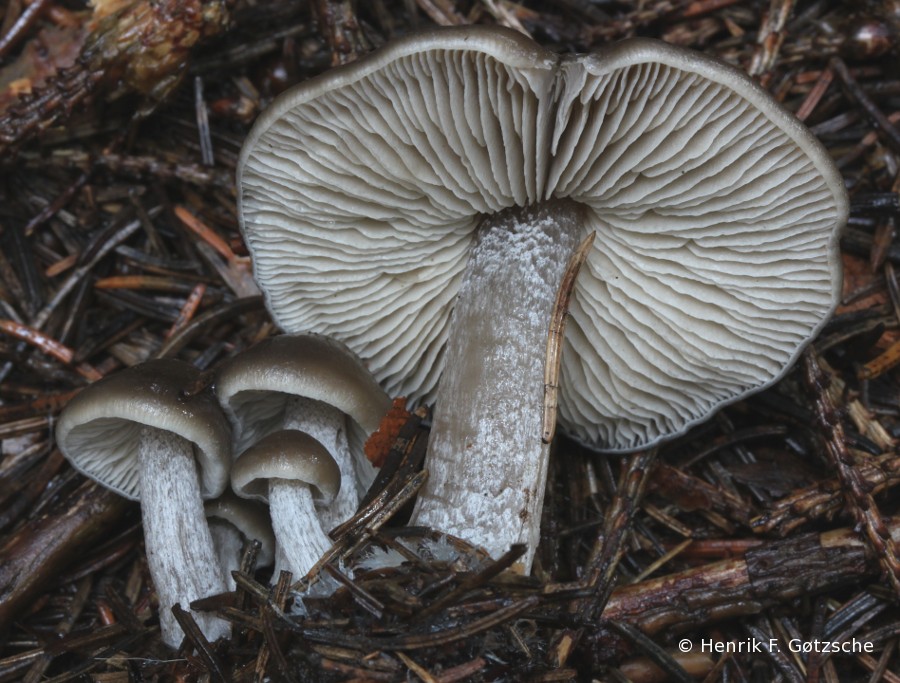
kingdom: Fungi
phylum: Basidiomycota
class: Agaricomycetes
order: Agaricales
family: Lyophyllaceae
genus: Myochromella
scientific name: Myochromella boudieri
